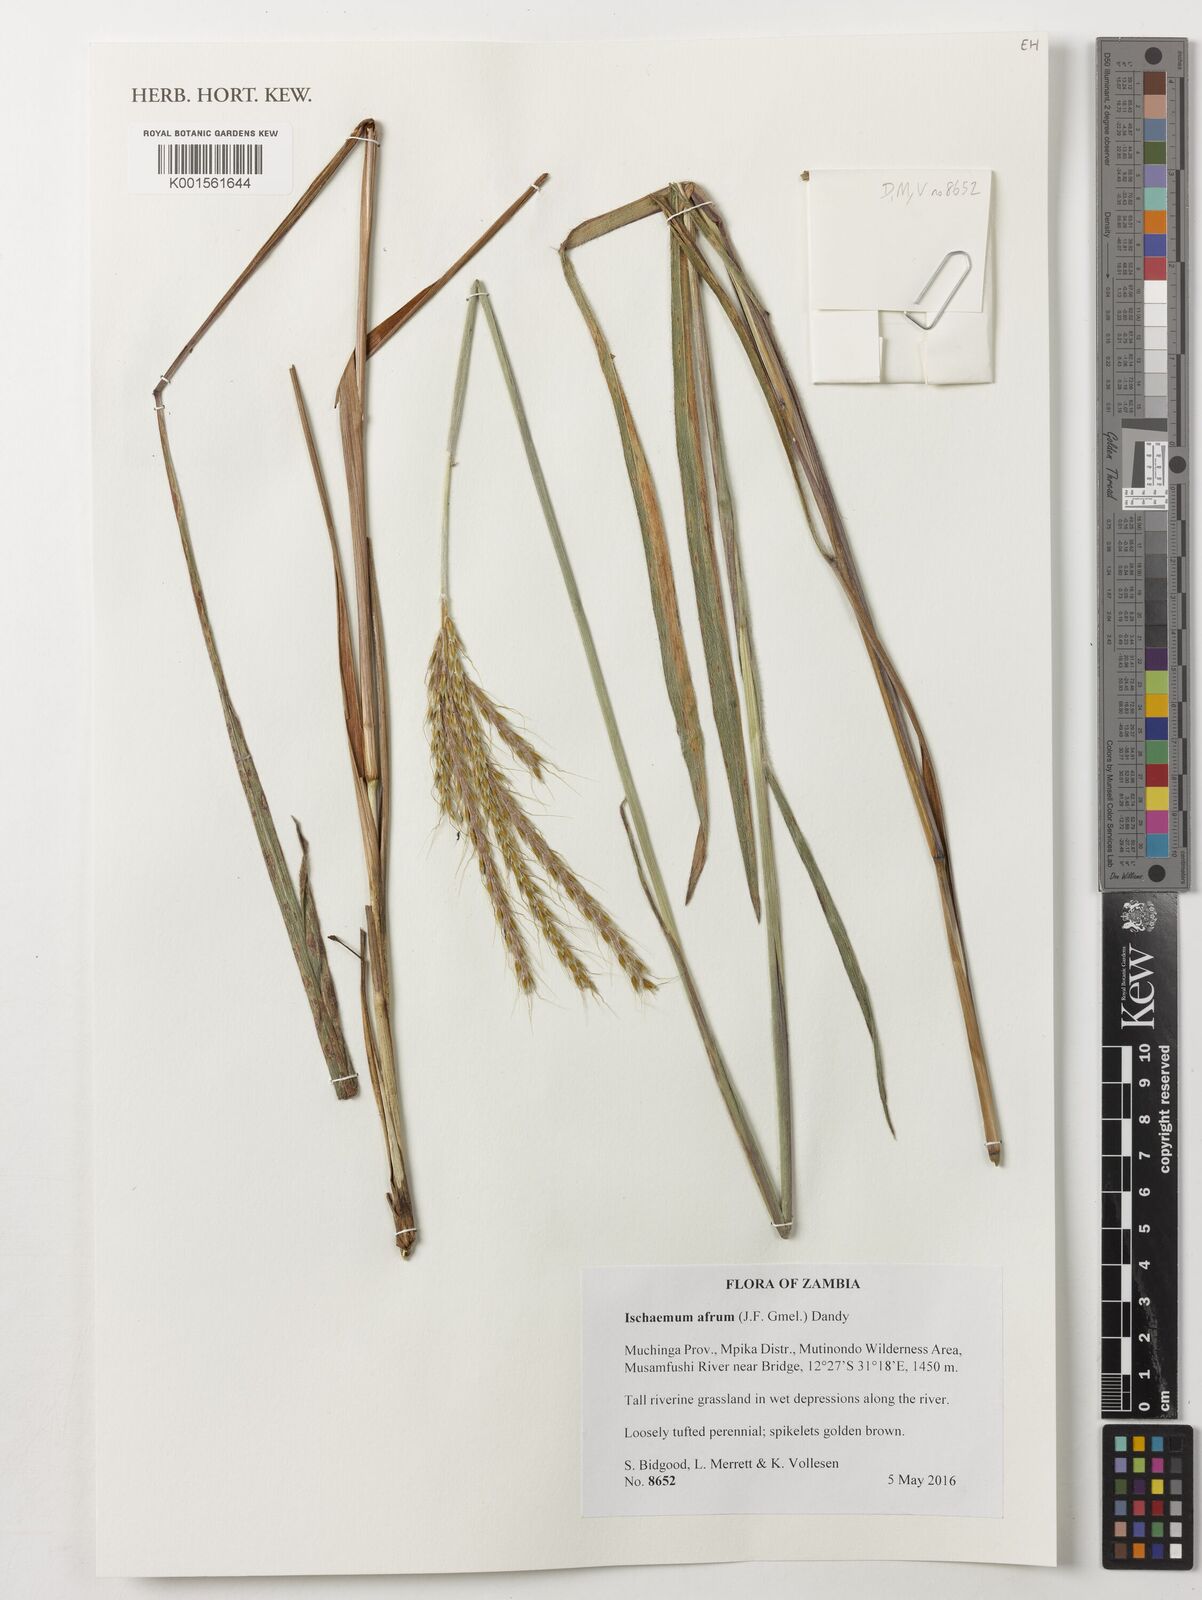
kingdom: Plantae
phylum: Tracheophyta
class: Liliopsida
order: Poales
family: Poaceae
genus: Ischaemum
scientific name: Ischaemum afrum
